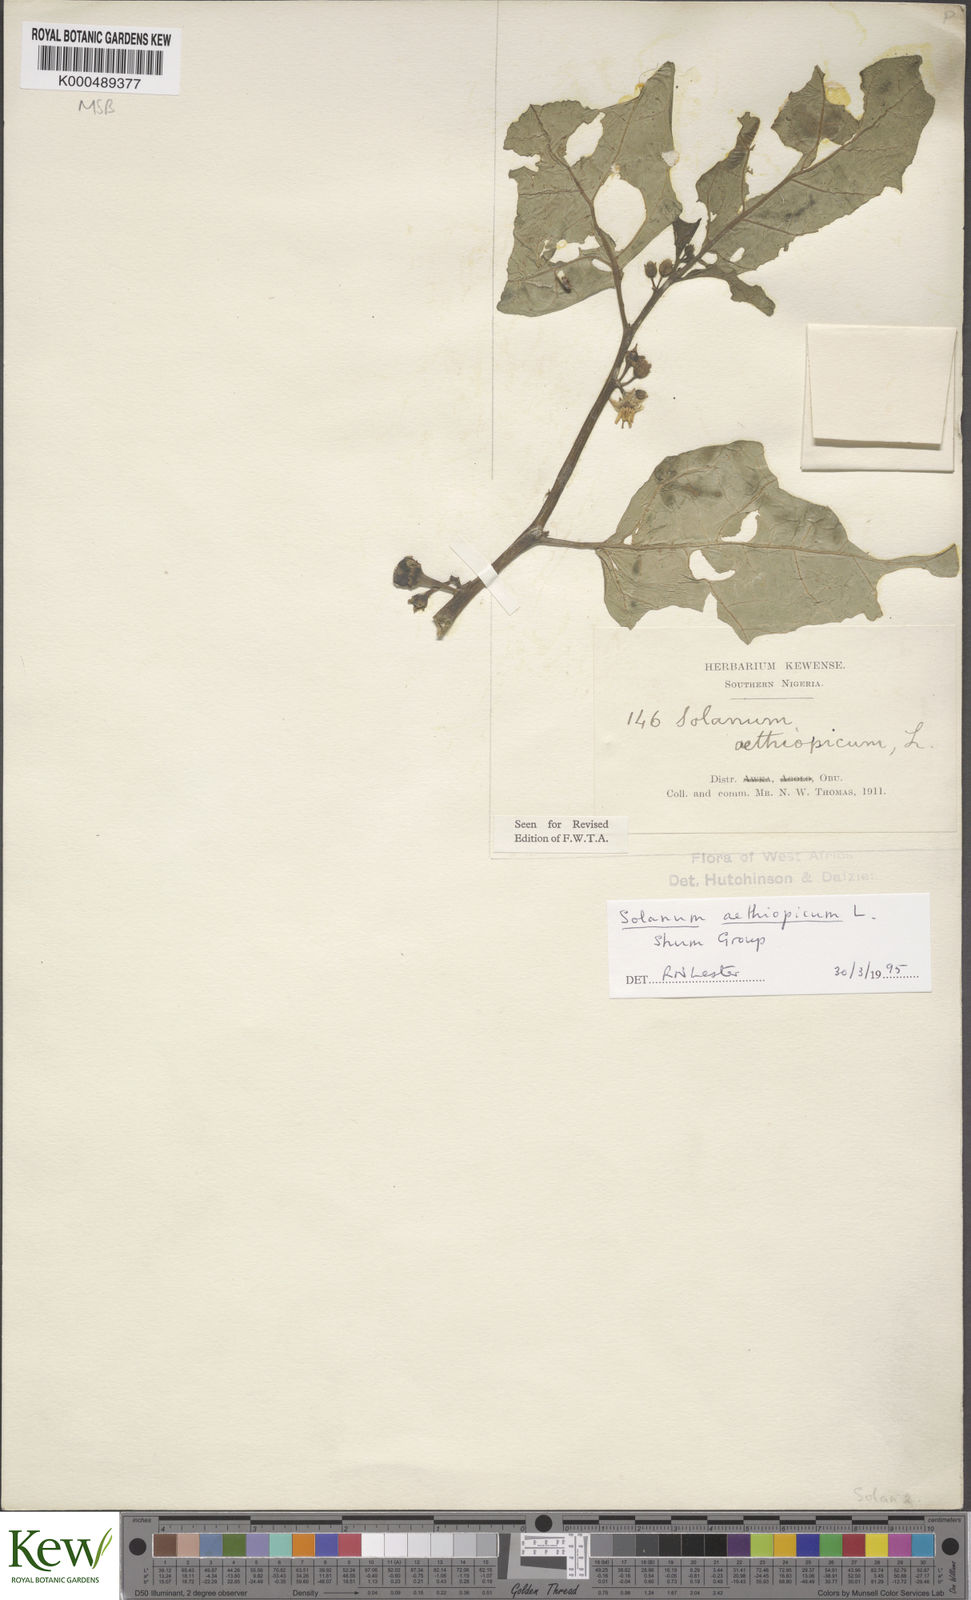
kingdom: Plantae
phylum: Tracheophyta
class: Magnoliopsida
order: Solanales
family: Solanaceae
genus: Solanum
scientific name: Solanum aethiopicum
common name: Gilo
